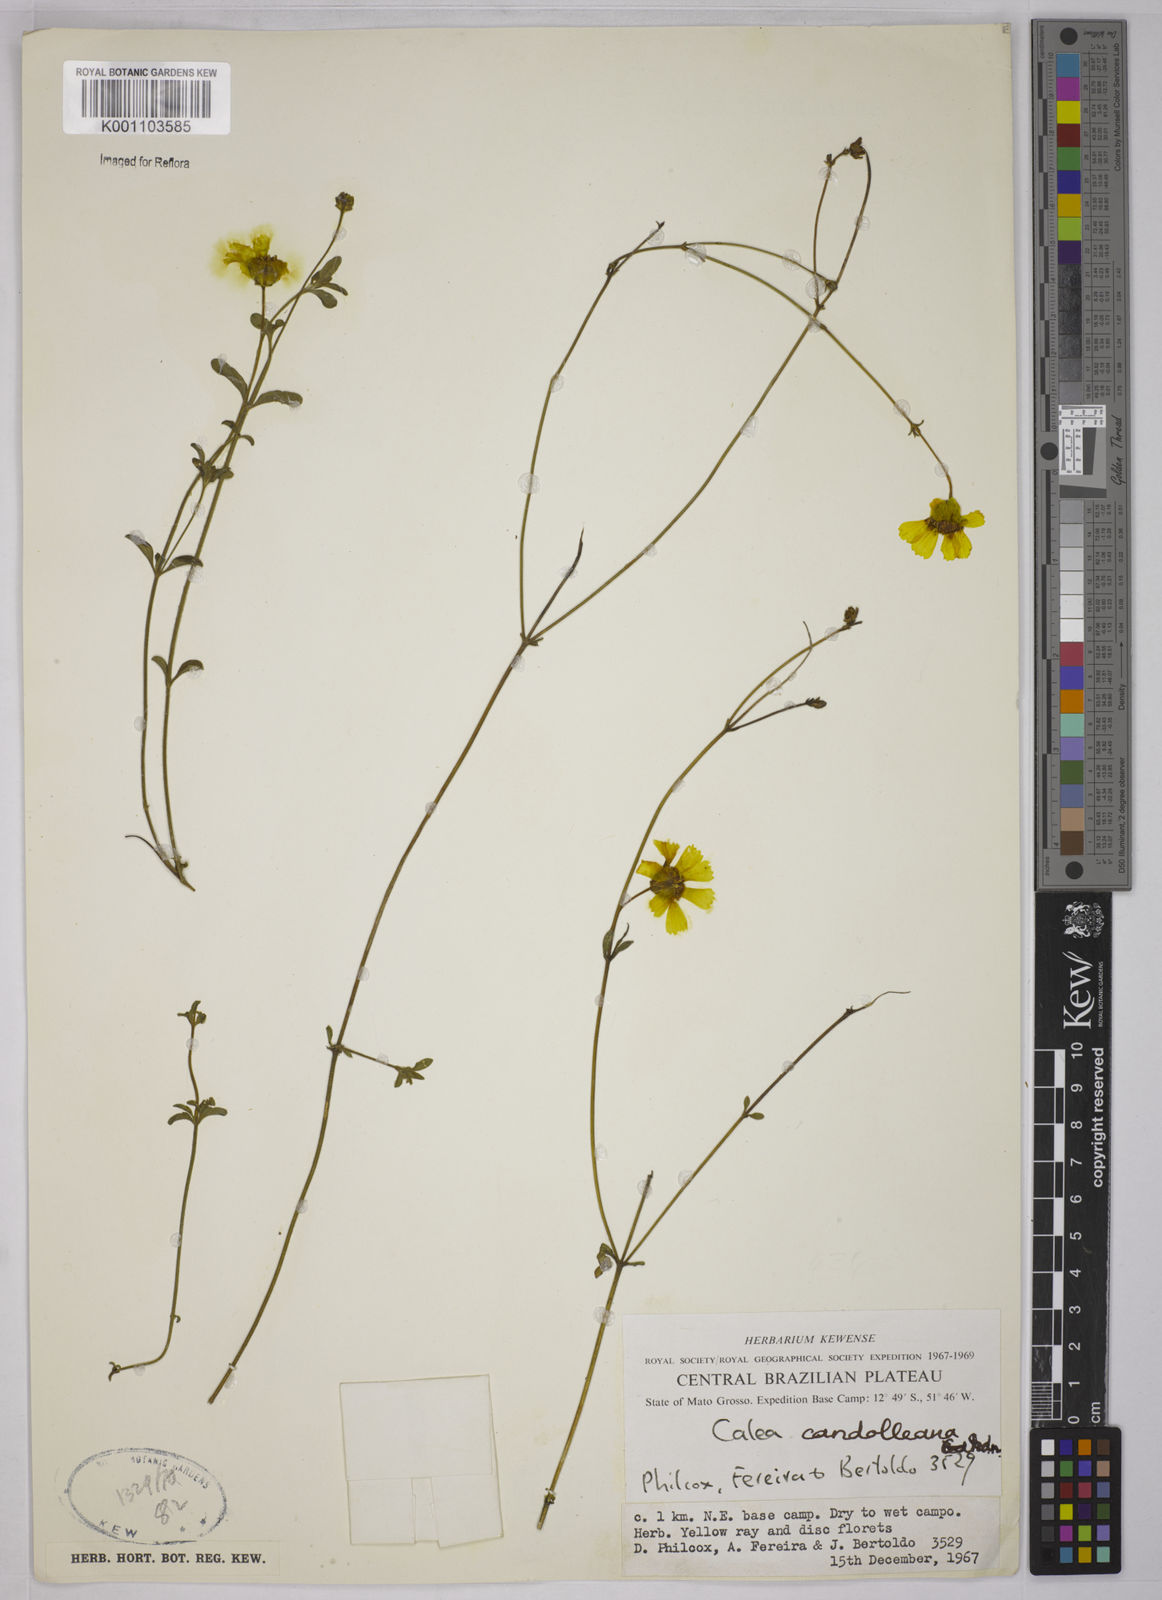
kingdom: Plantae
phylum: Tracheophyta
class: Magnoliopsida
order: Asterales
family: Asteraceae
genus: Calea
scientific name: Calea candolleana
